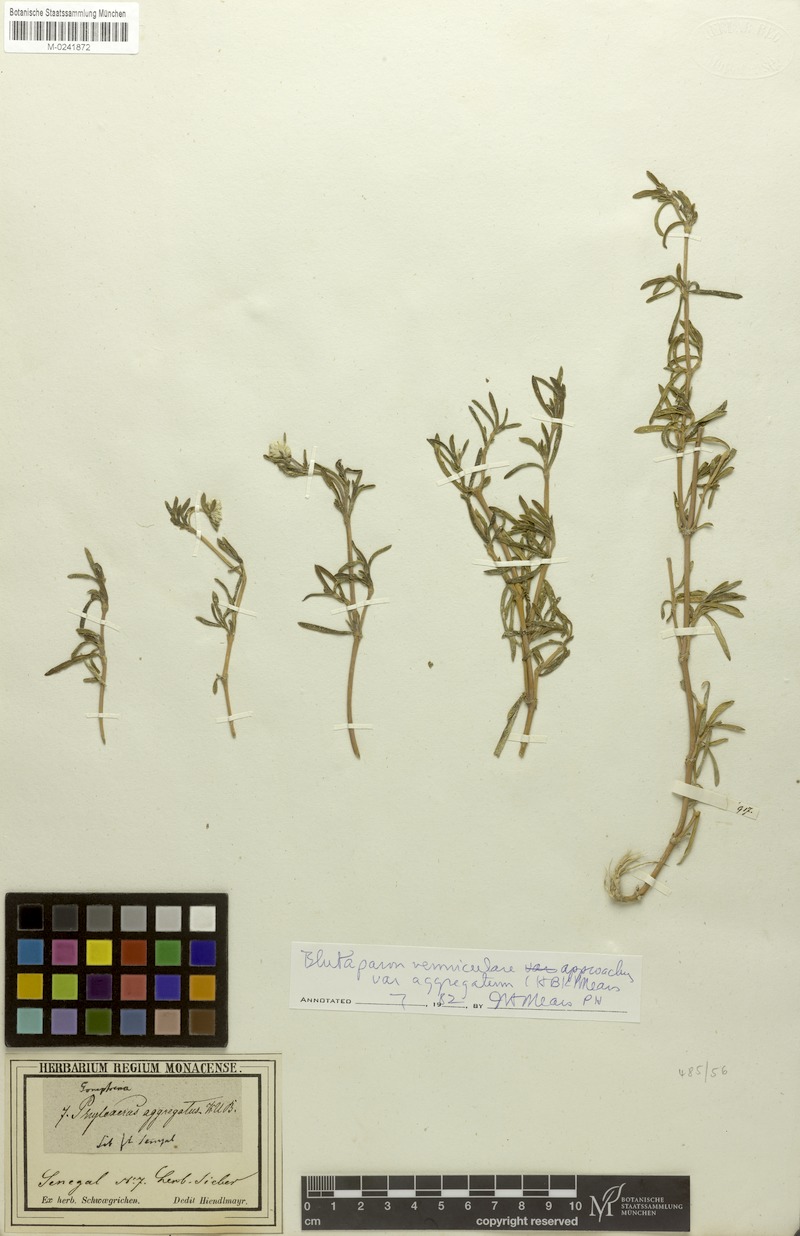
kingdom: Plantae
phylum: Tracheophyta
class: Magnoliopsida
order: Caryophyllales
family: Amaranthaceae
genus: Gomphrena
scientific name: Gomphrena vermicularis
